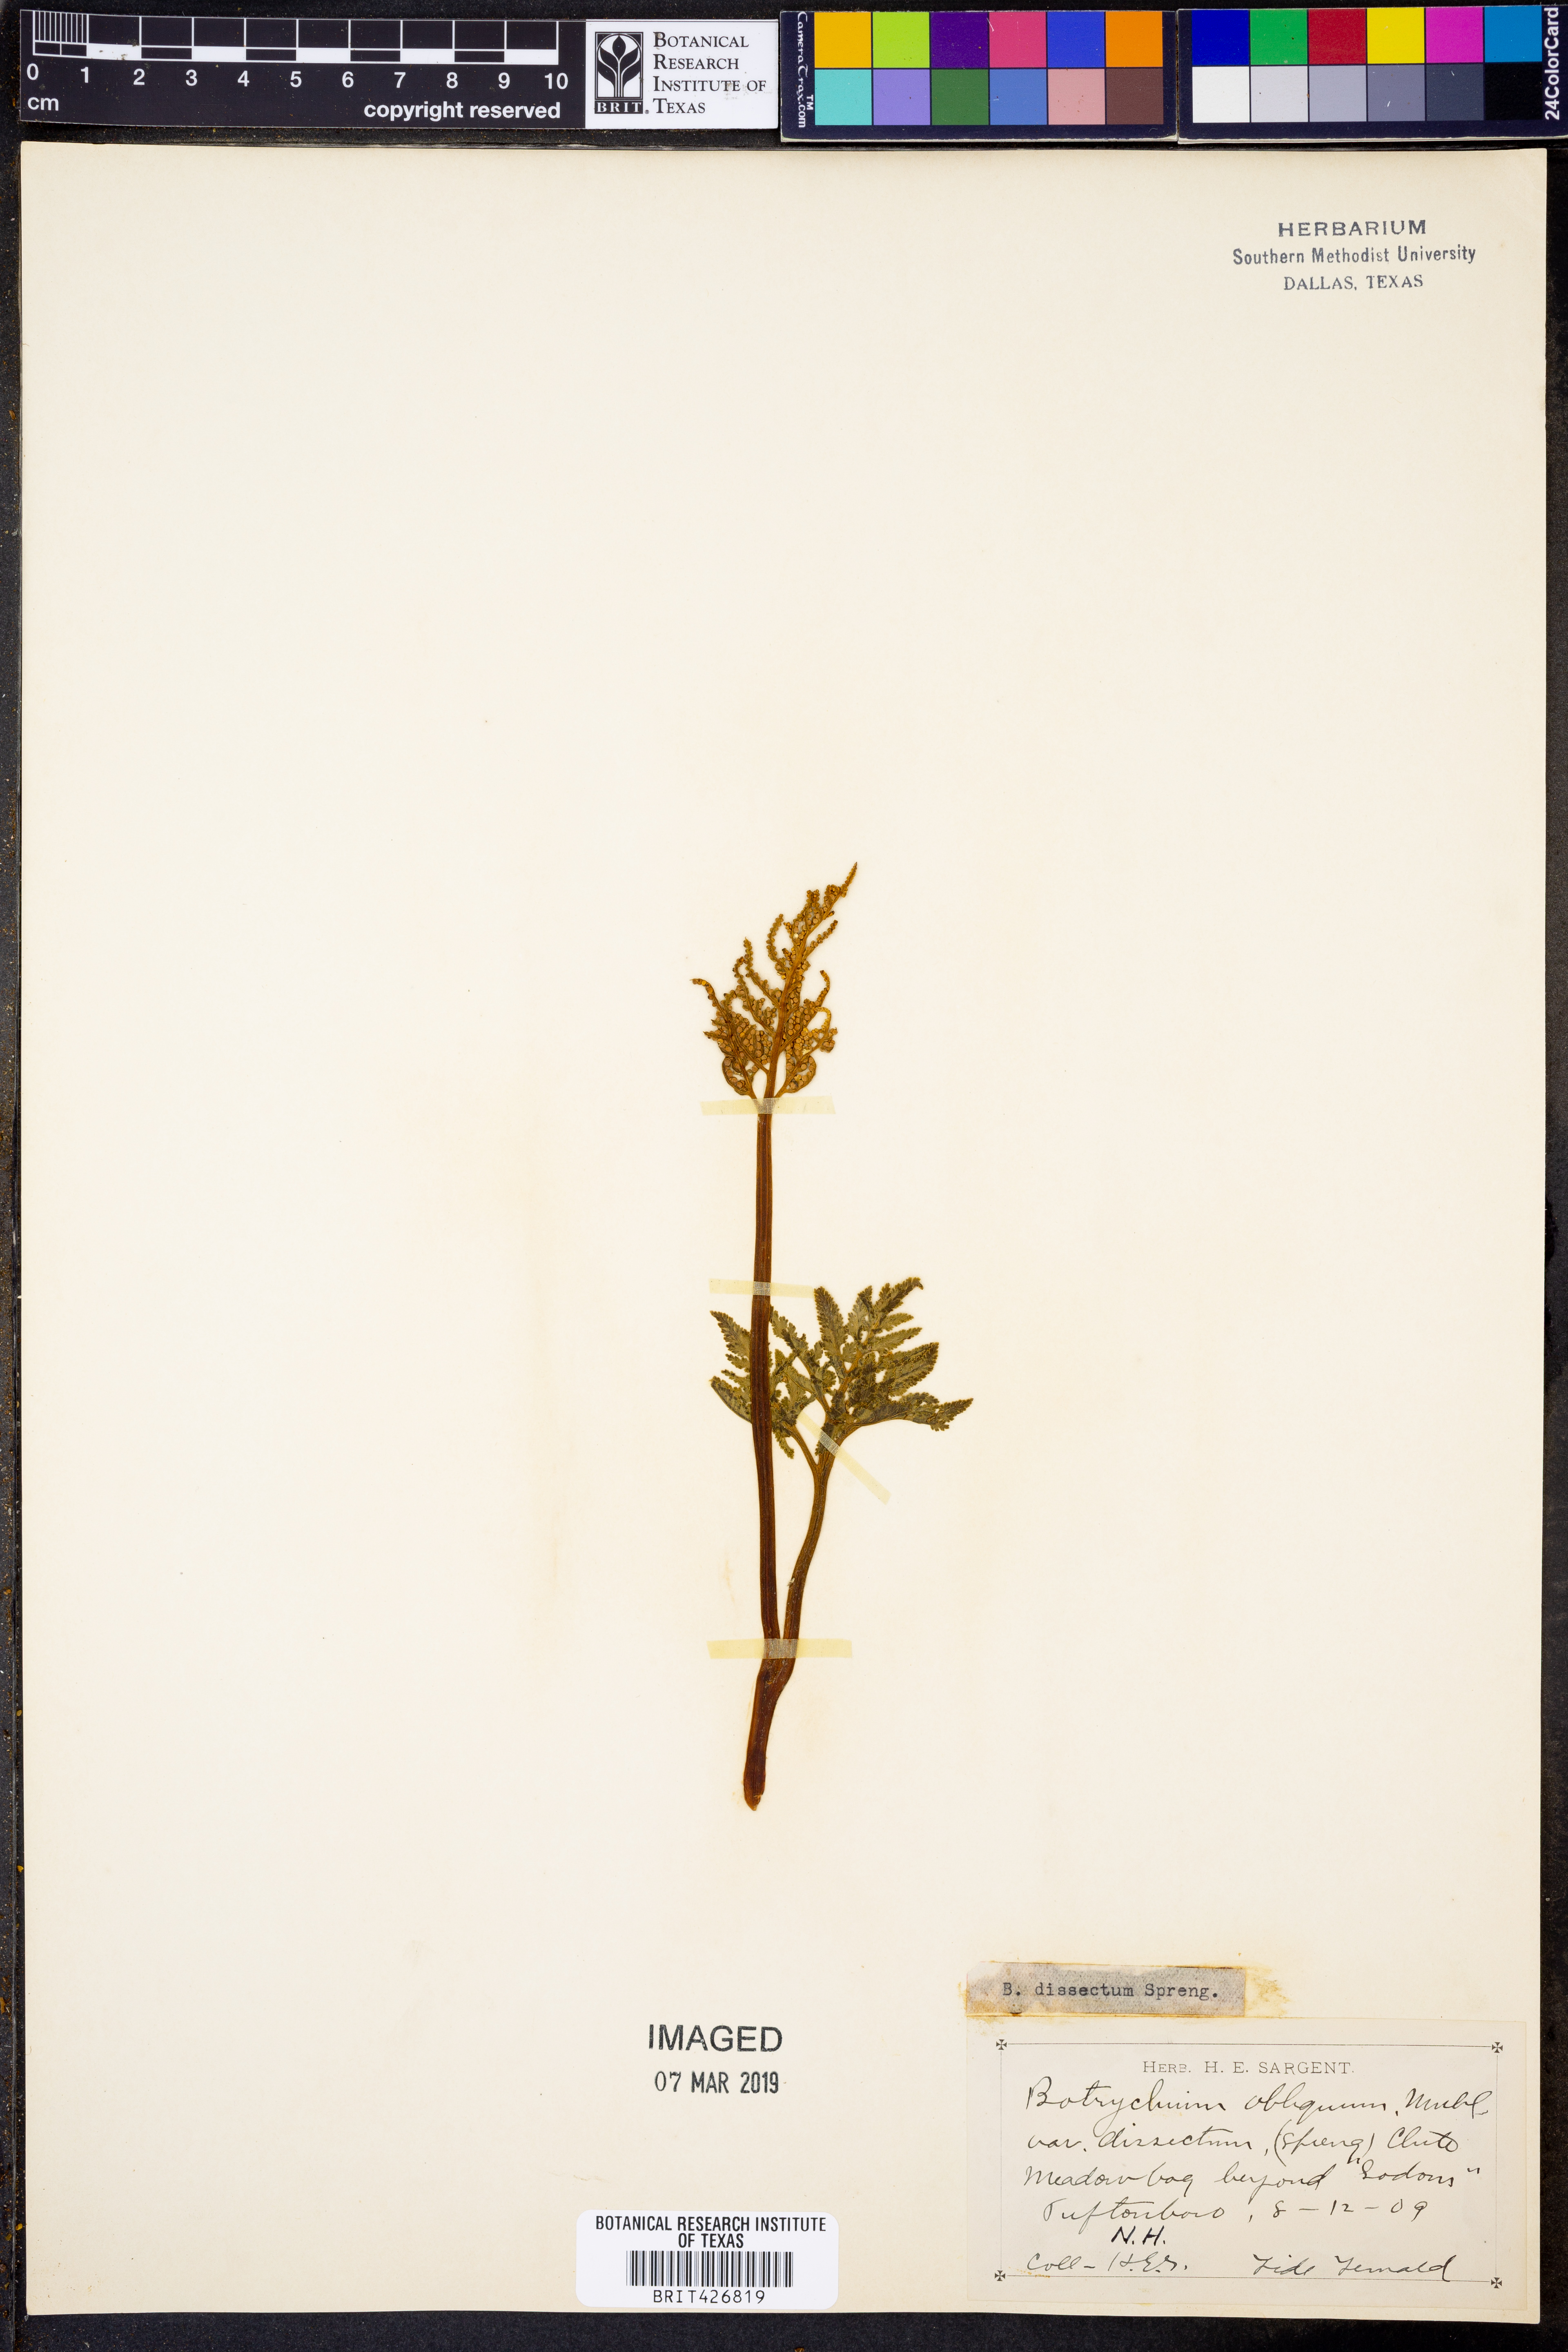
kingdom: Plantae
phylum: Tracheophyta
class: Polypodiopsida
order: Ophioglossales
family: Ophioglossaceae
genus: Sceptridium
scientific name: Sceptridium dissectum
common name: Cut-leaved grapefern
